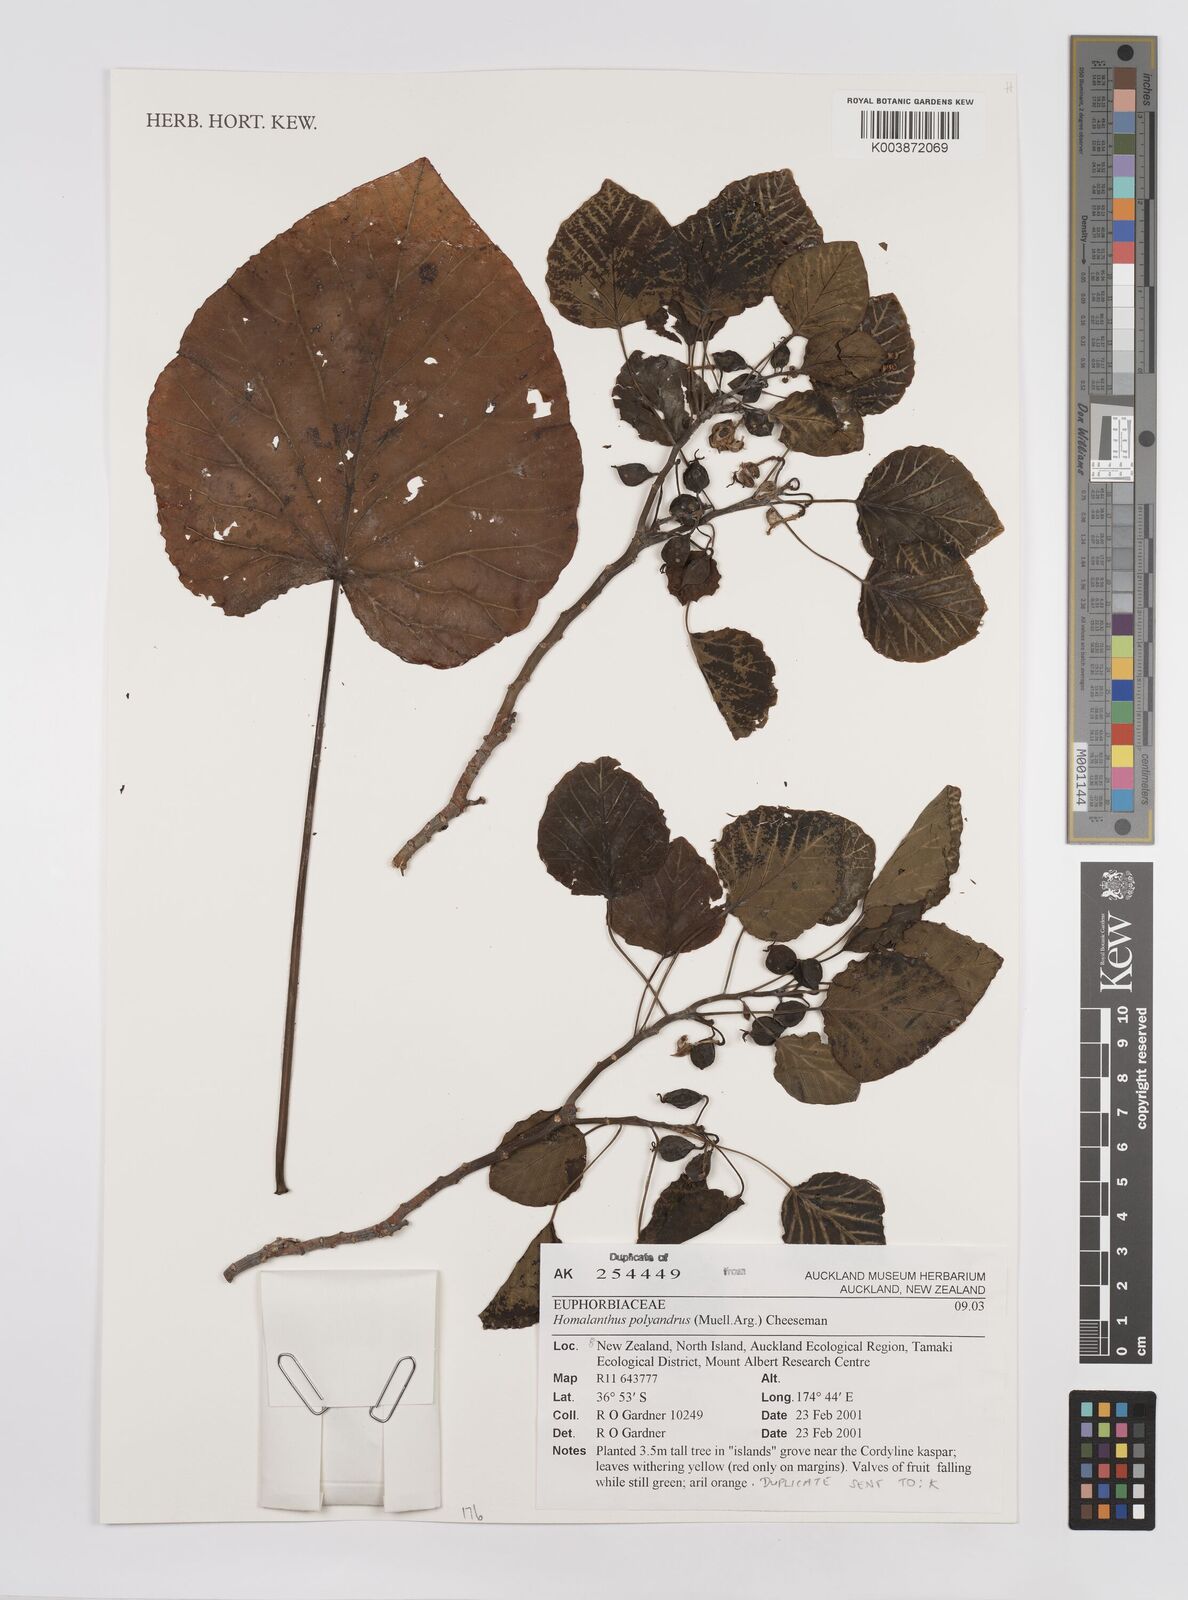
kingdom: Plantae
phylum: Tracheophyta
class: Magnoliopsida
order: Malpighiales
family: Euphorbiaceae
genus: Homalanthus
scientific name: Homalanthus polyandrus
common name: Kermadec poplar
